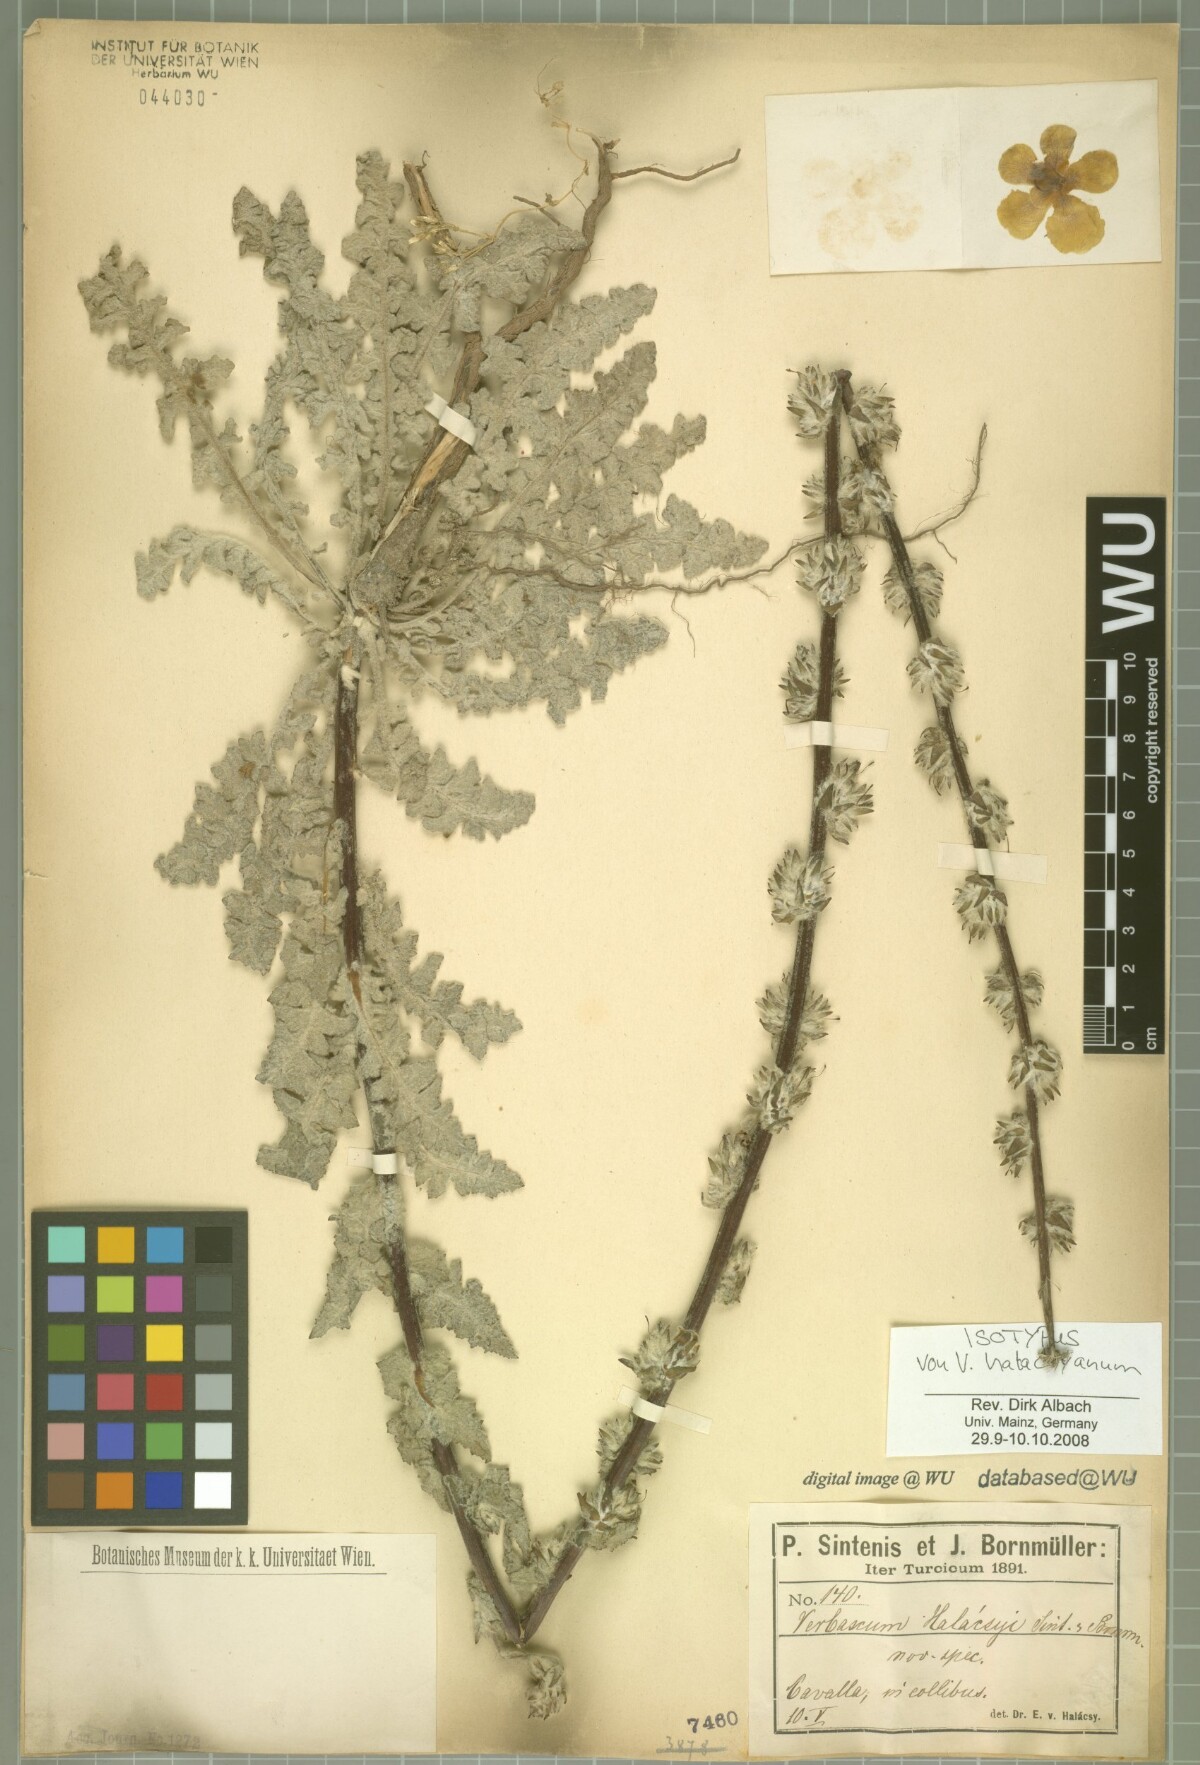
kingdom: Plantae
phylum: Tracheophyta
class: Magnoliopsida
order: Lamiales
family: Scrophulariaceae
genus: Verbascum
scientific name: Verbascum halacsyanum
